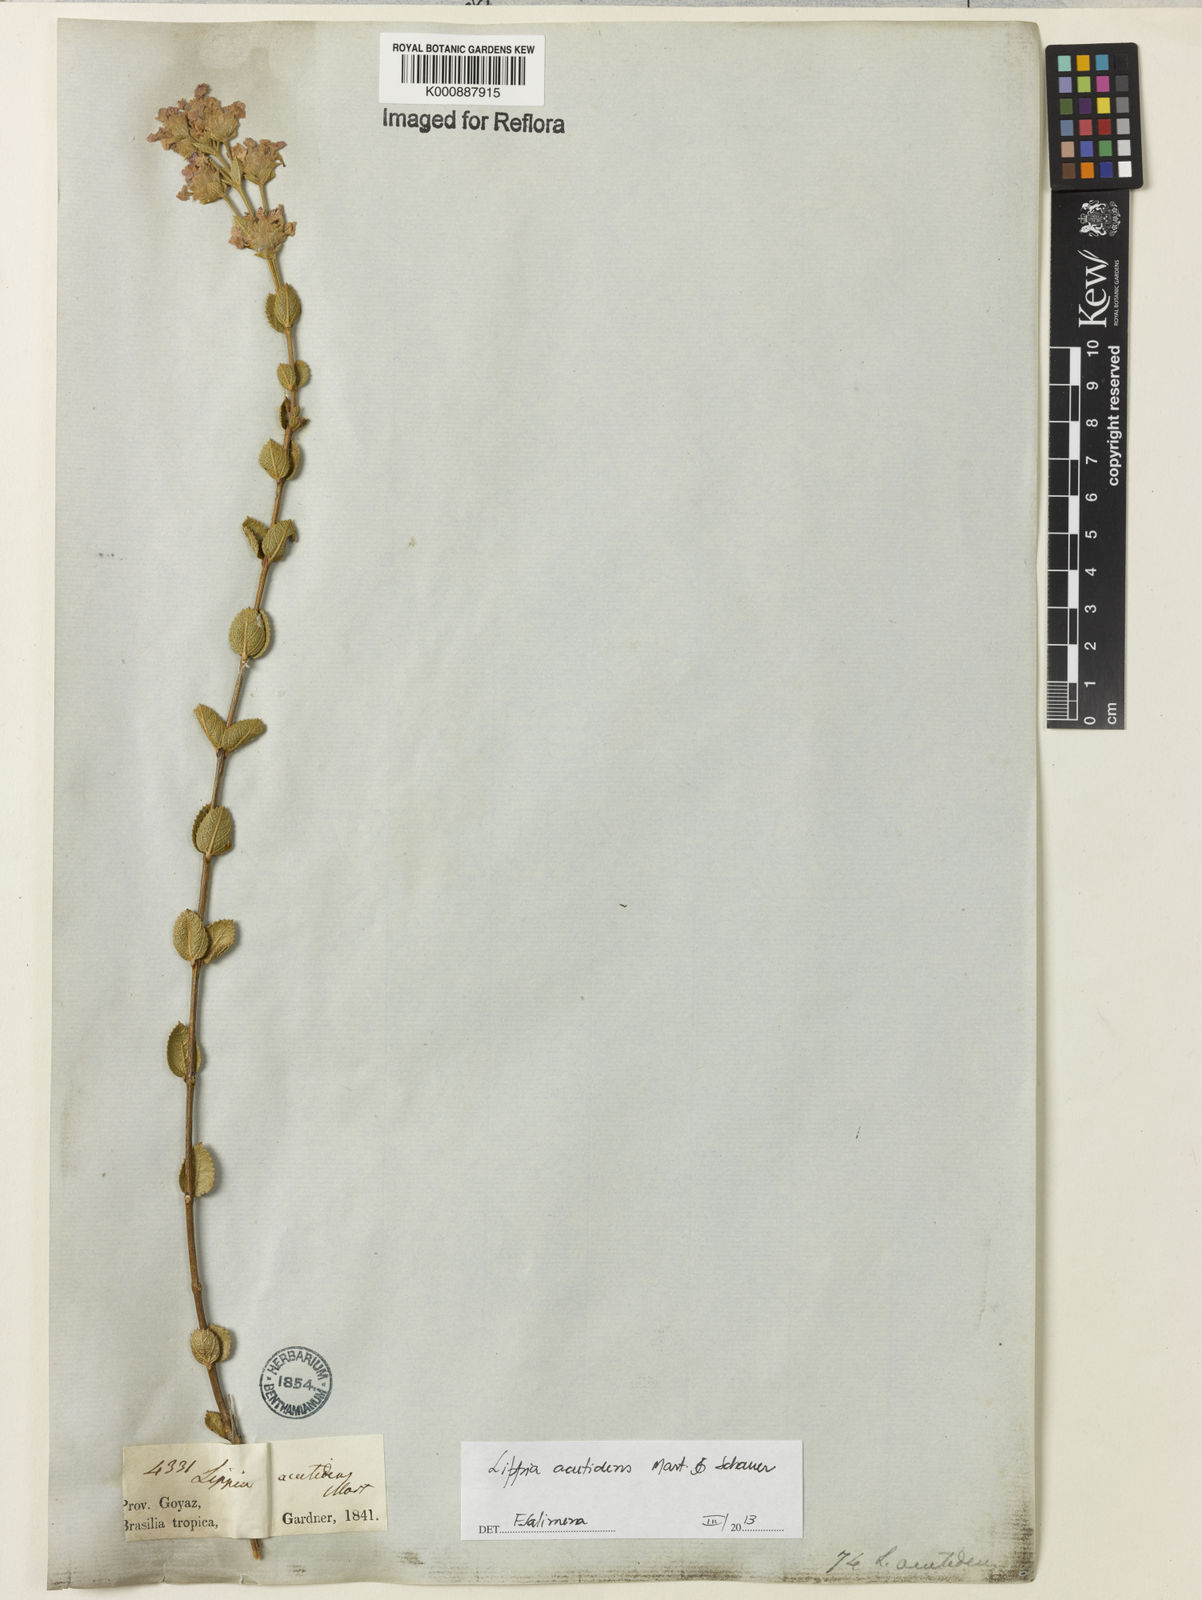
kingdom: Plantae
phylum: Tracheophyta
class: Magnoliopsida
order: Lamiales
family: Verbenaceae
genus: Lippia
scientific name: Lippia acutidens
